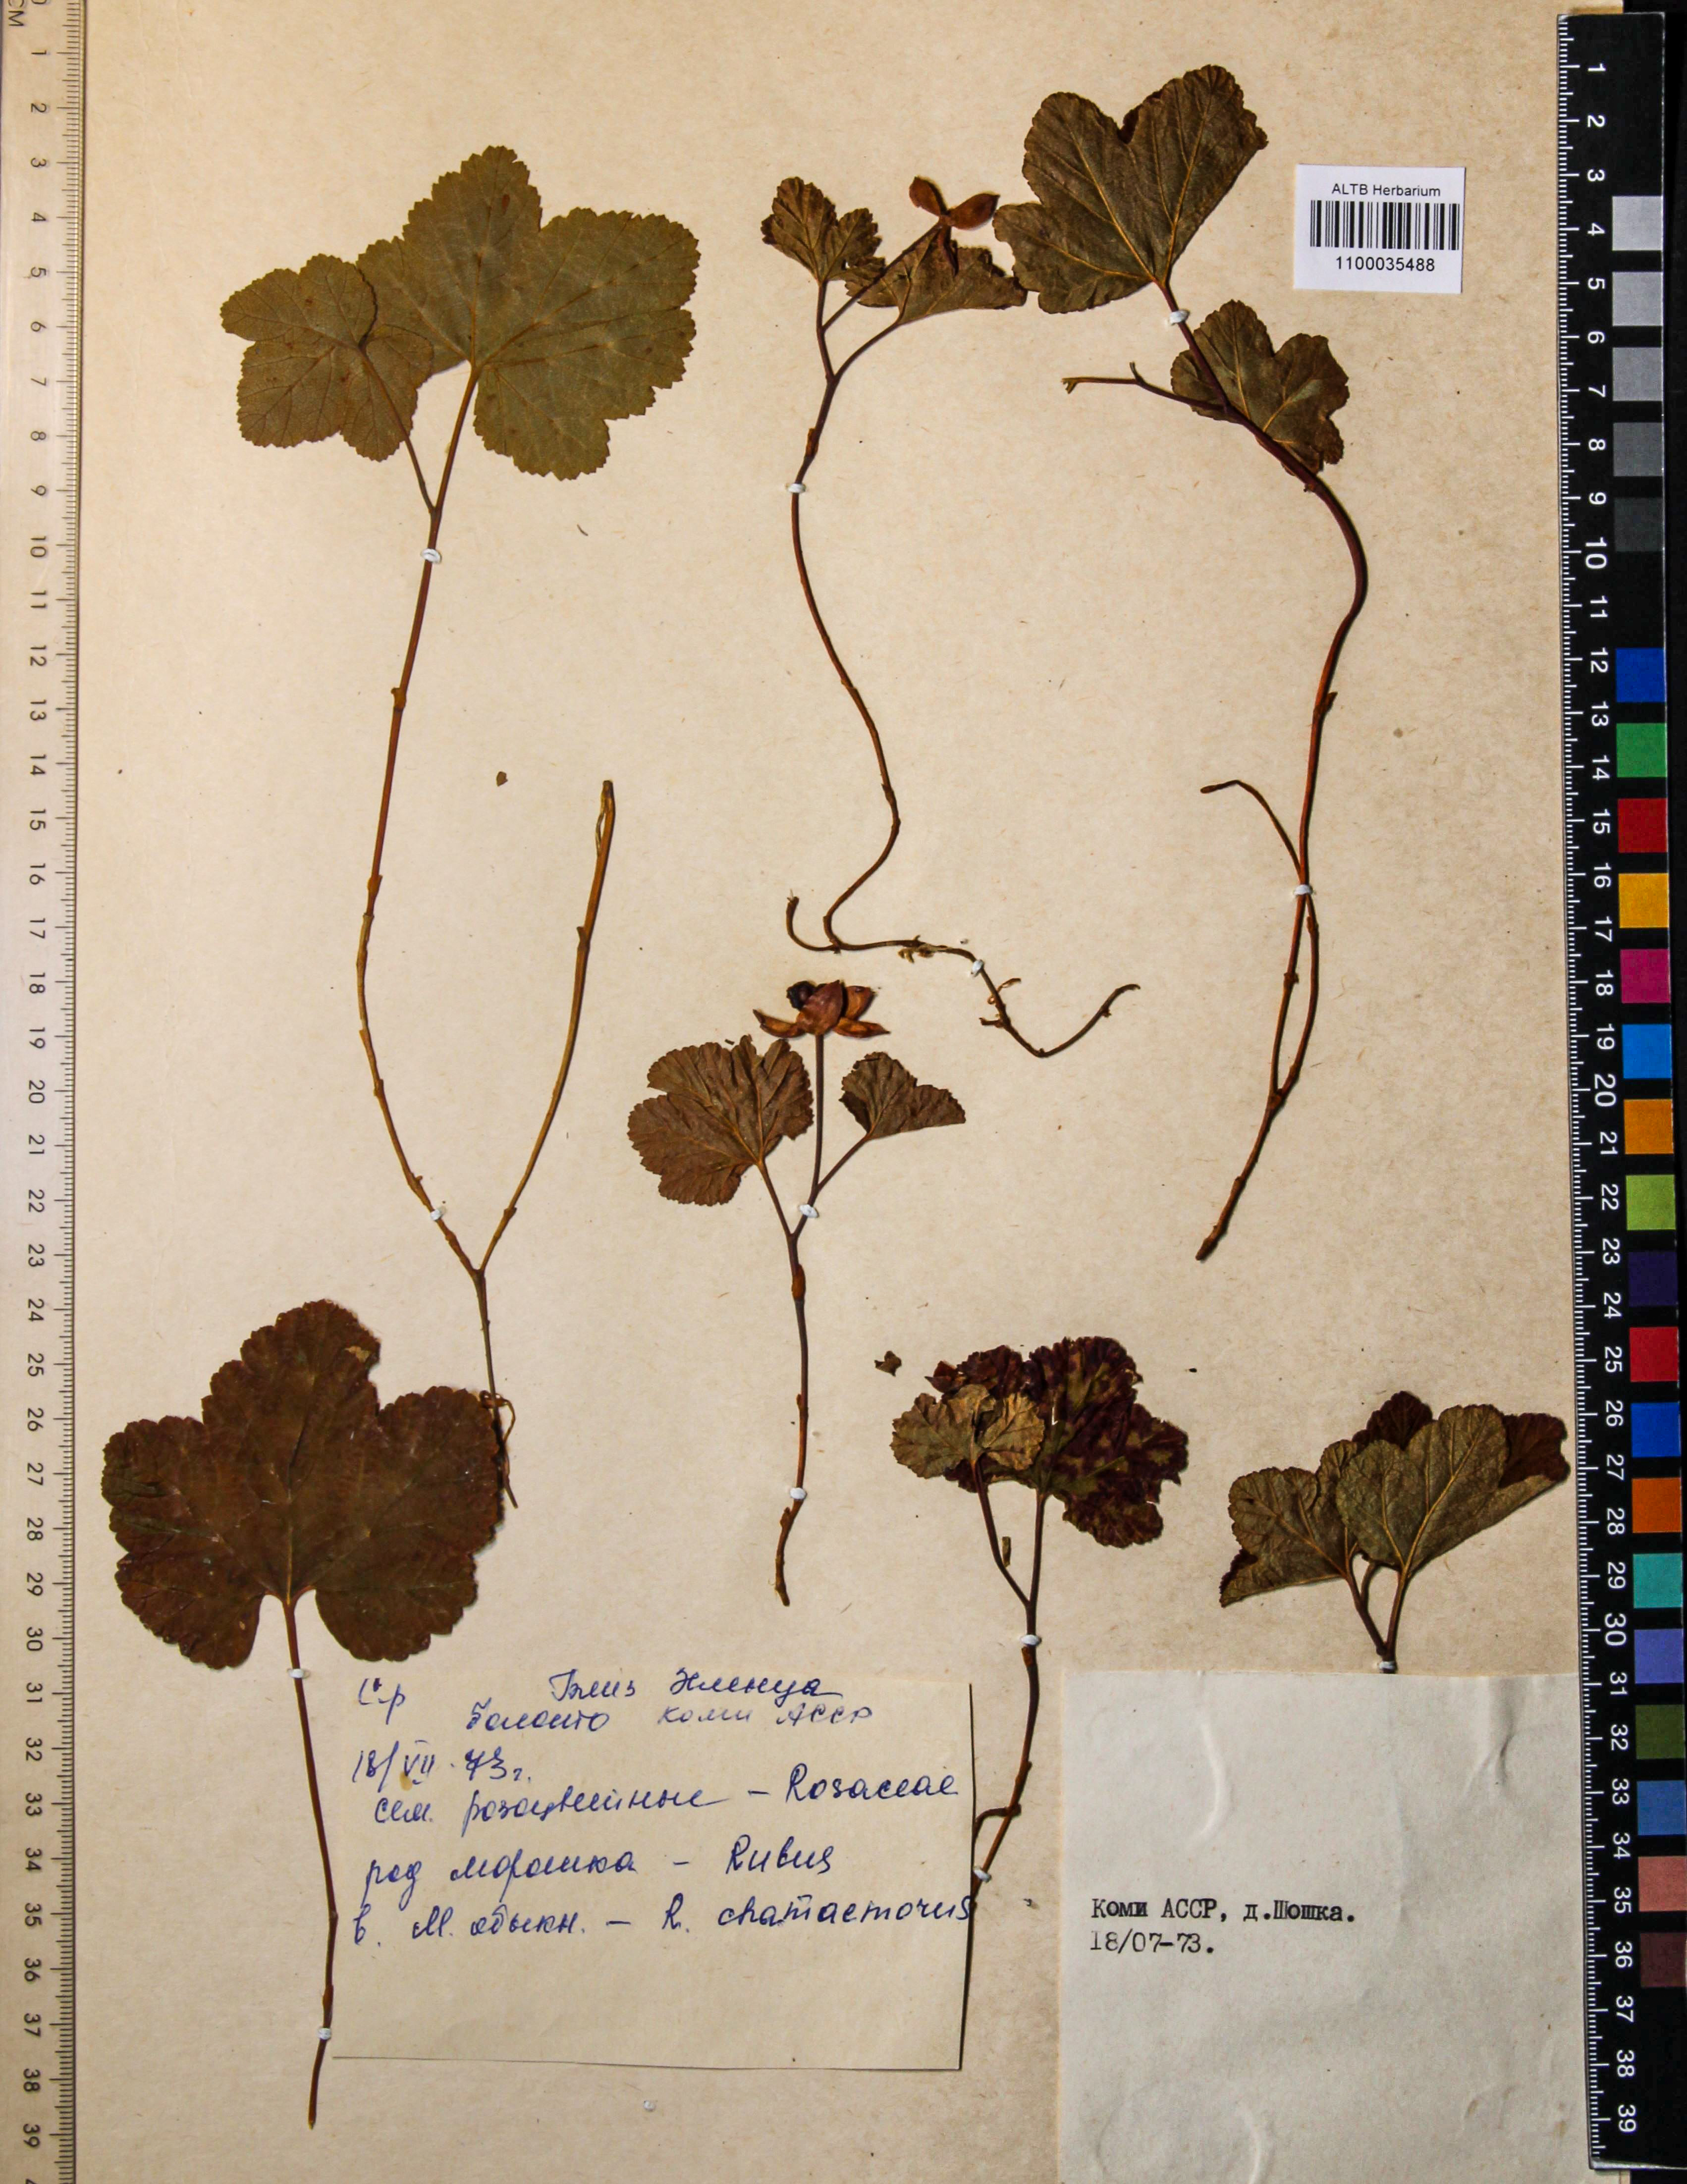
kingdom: Plantae
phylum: Tracheophyta
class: Magnoliopsida
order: Rosales
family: Rosaceae
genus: Rubus
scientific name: Rubus chamaemorus
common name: Cloudberry
